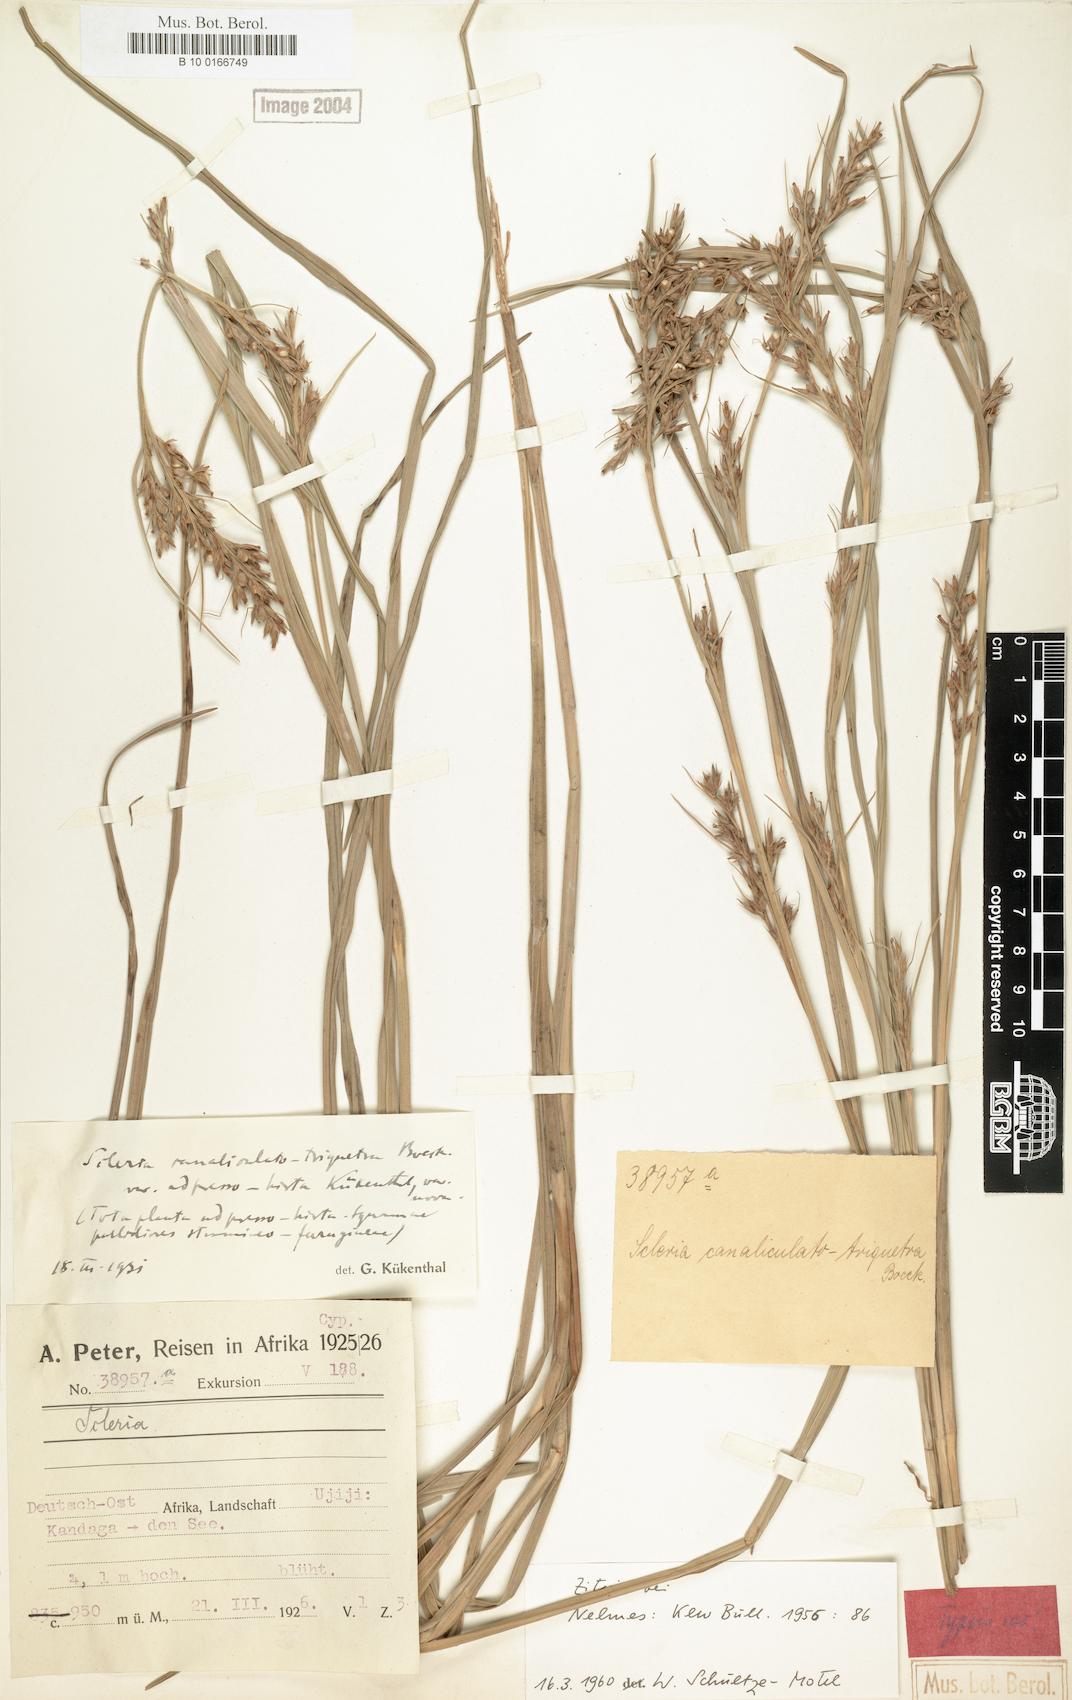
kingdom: Plantae
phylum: Tracheophyta
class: Liliopsida
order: Poales
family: Cyperaceae
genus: Scleria
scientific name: Scleria adpressohirta
